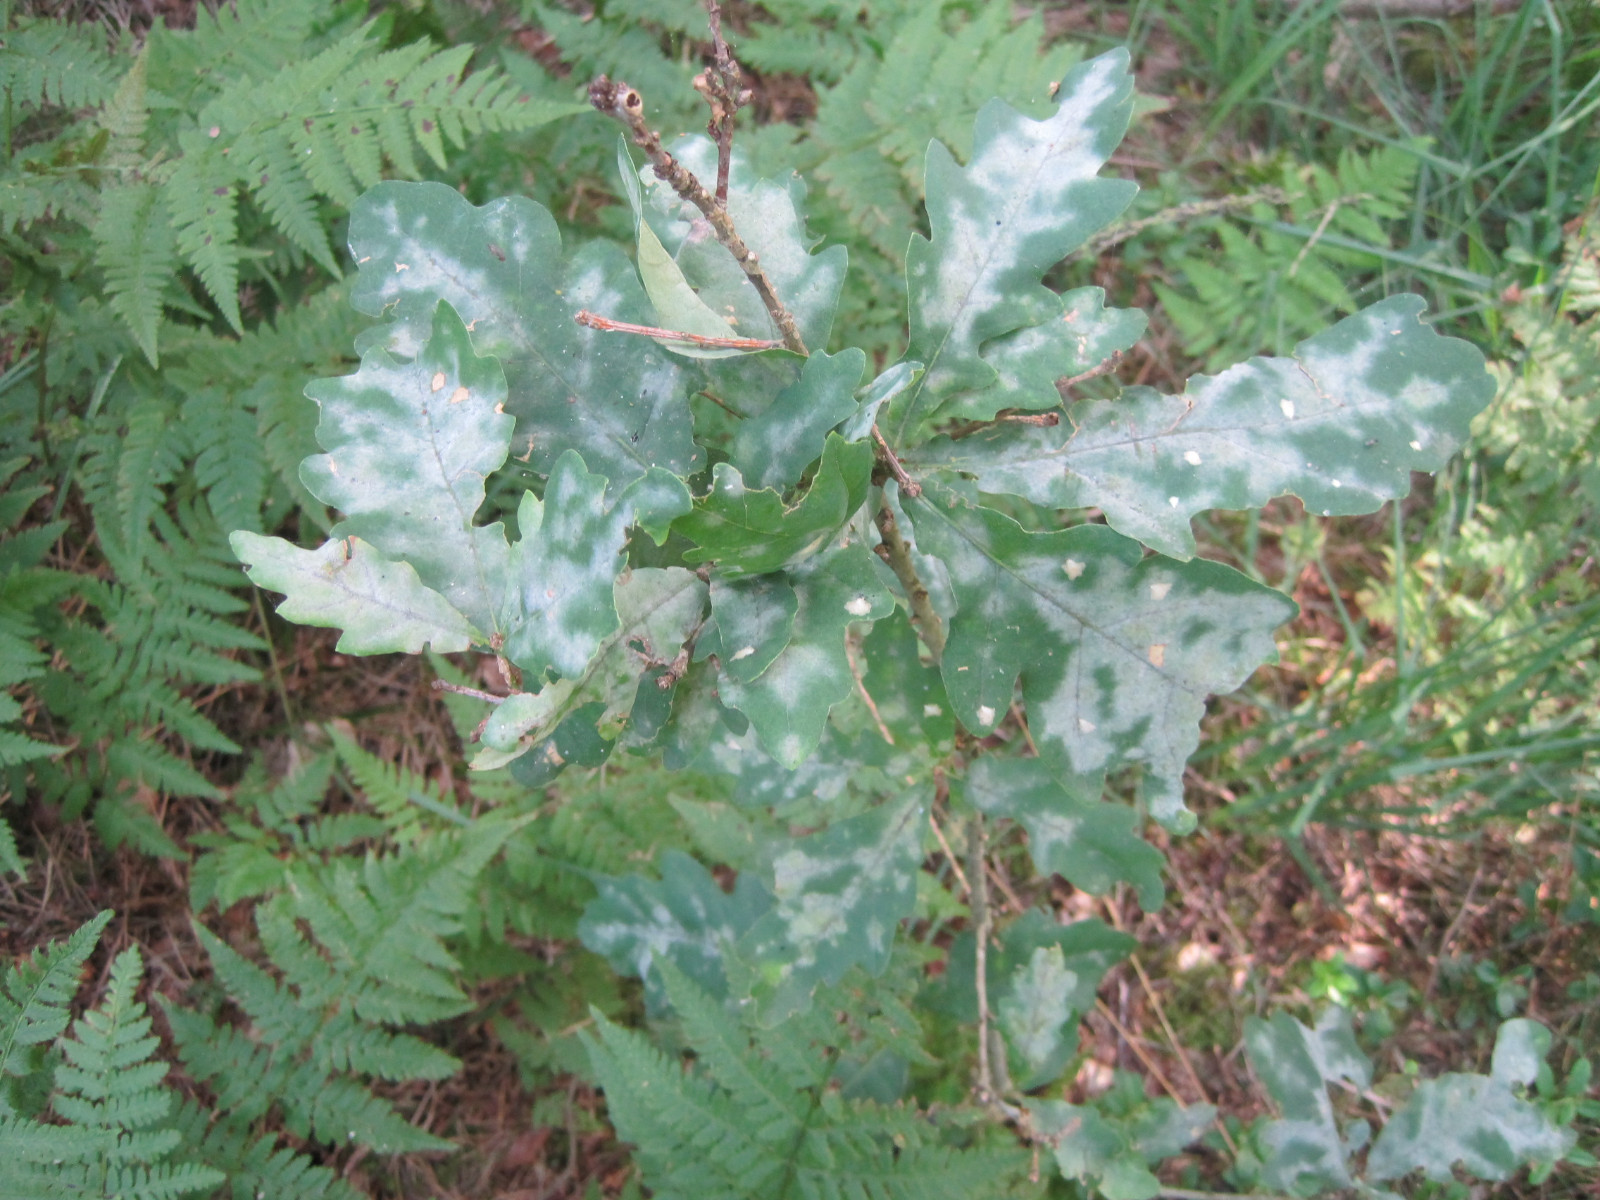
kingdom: Fungi
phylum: Ascomycota
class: Leotiomycetes
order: Helotiales
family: Erysiphaceae
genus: Erysiphe
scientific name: Erysiphe alphitoides
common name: ege-meldug
